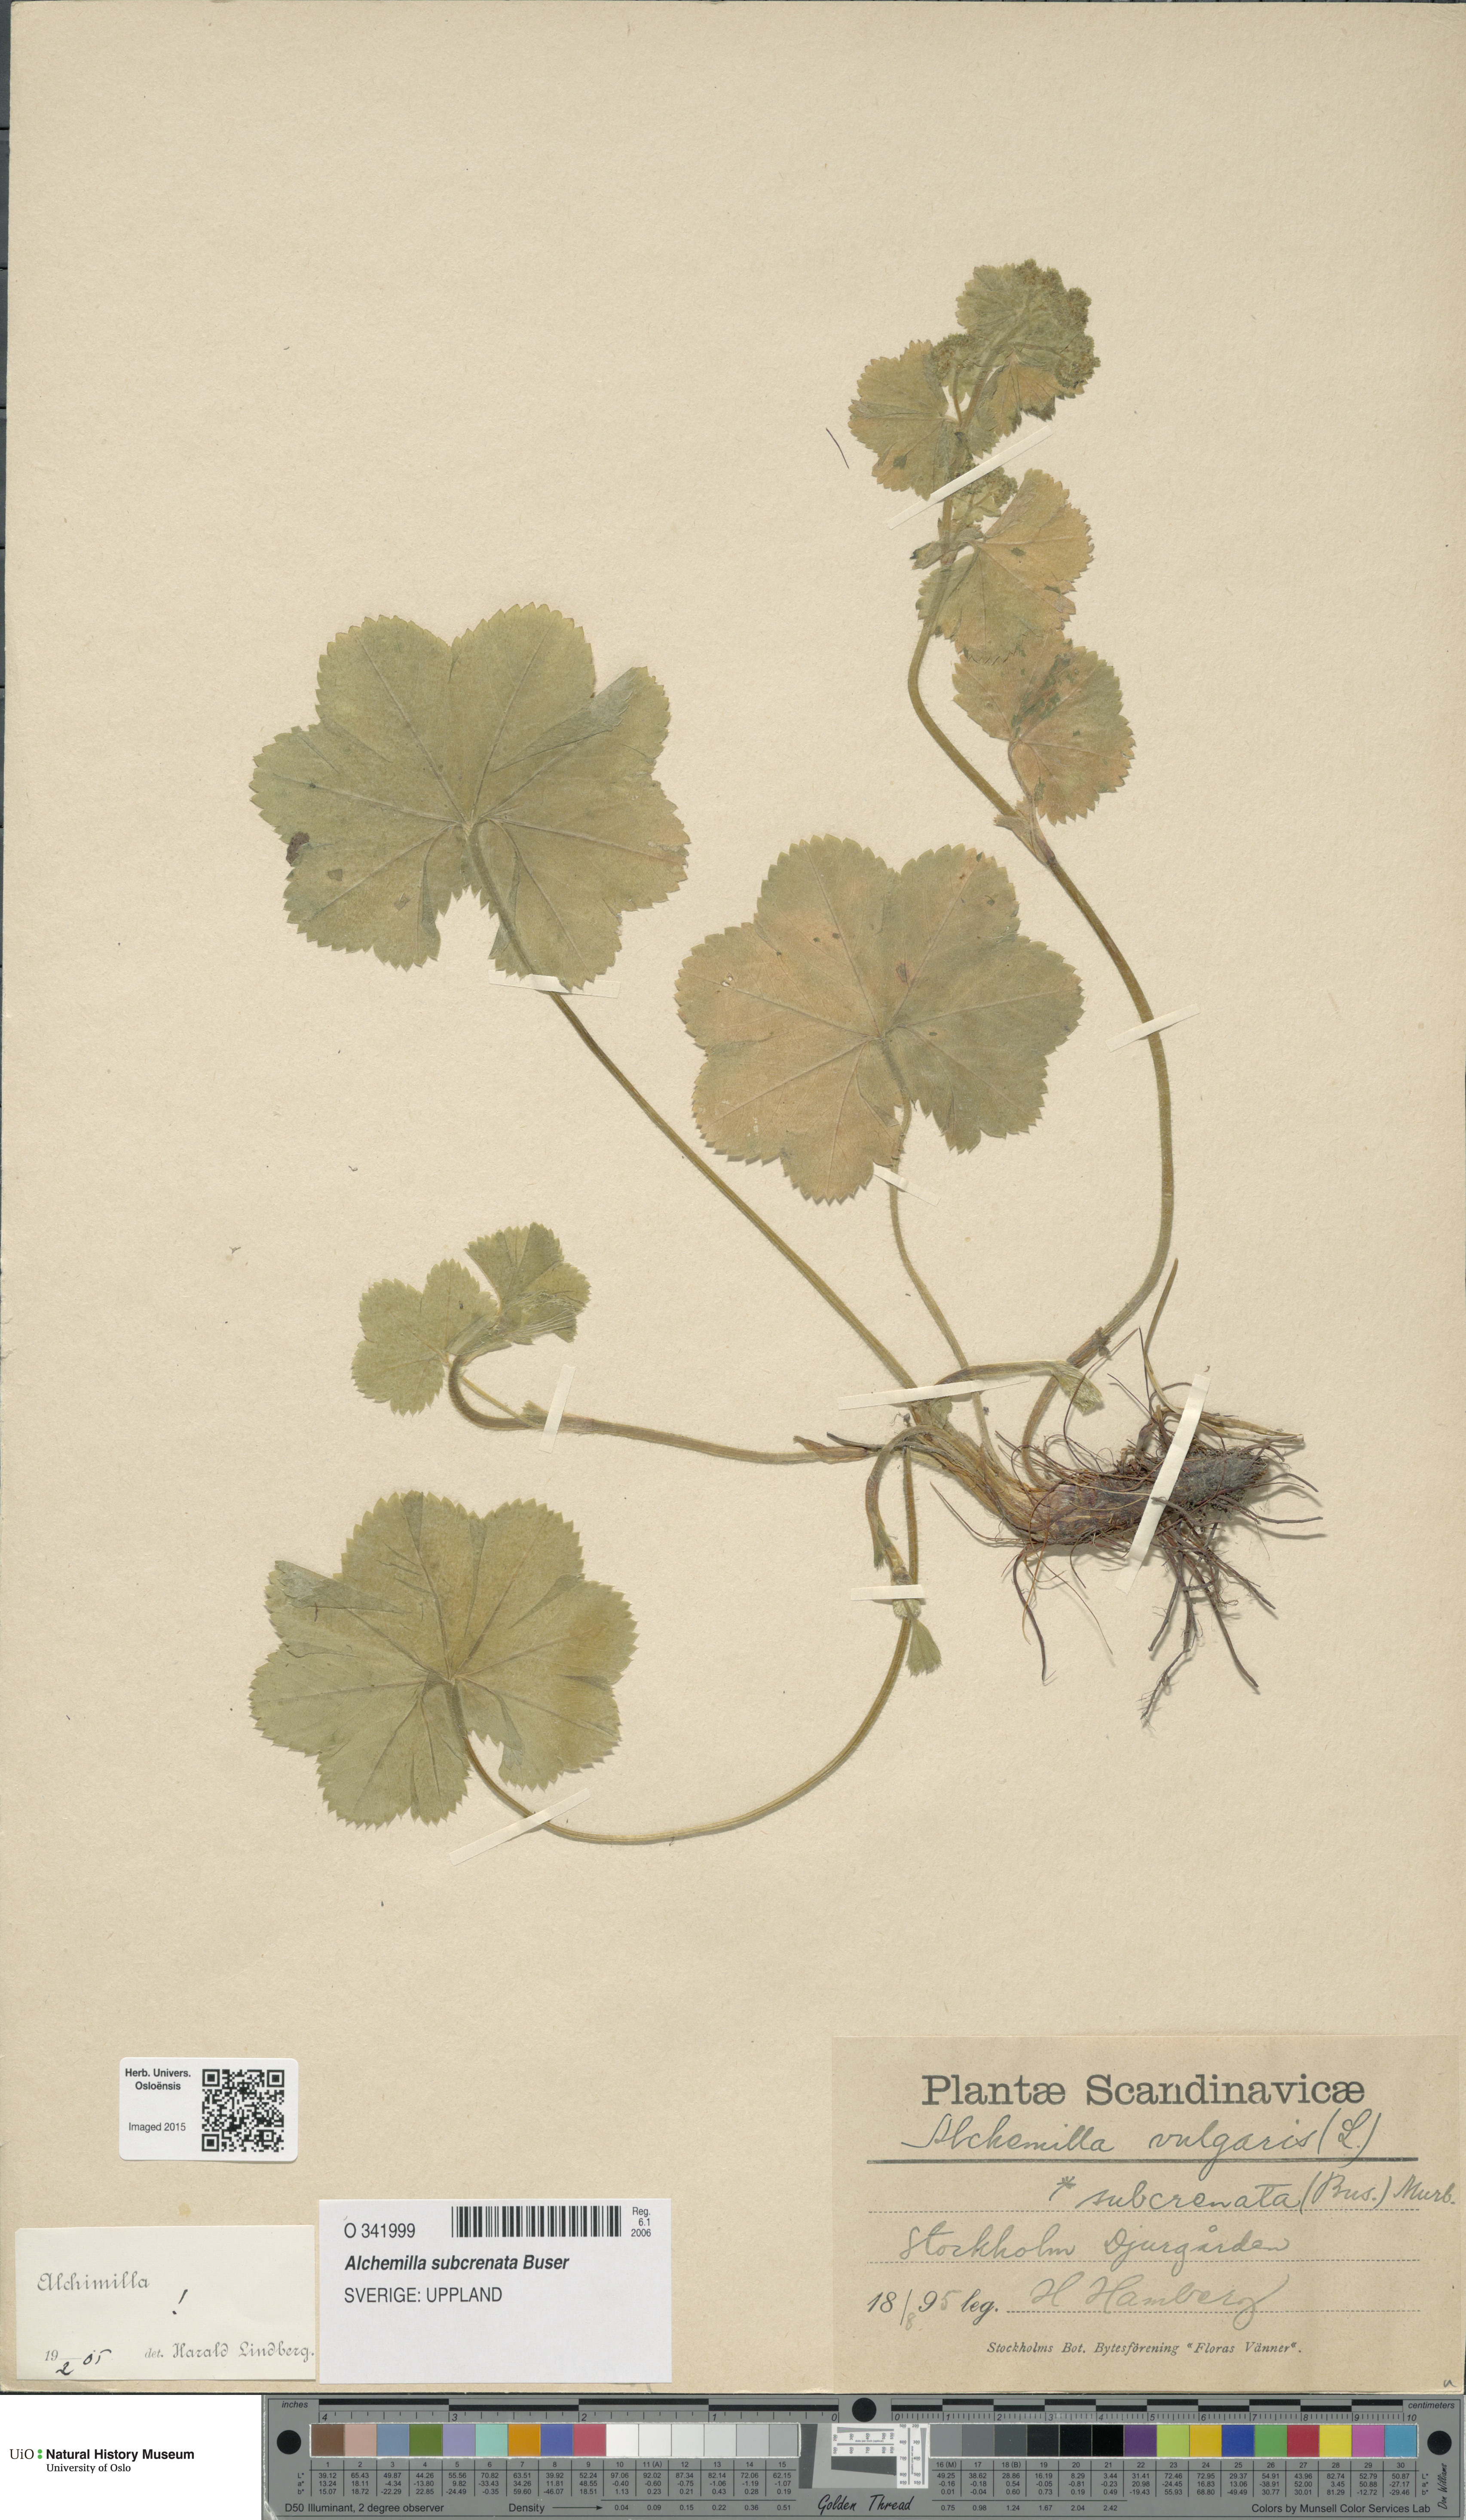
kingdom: Plantae
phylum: Tracheophyta
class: Magnoliopsida
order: Rosales
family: Rosaceae
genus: Alchemilla
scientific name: Alchemilla subcrenata
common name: Broadtooth lady's mantle
